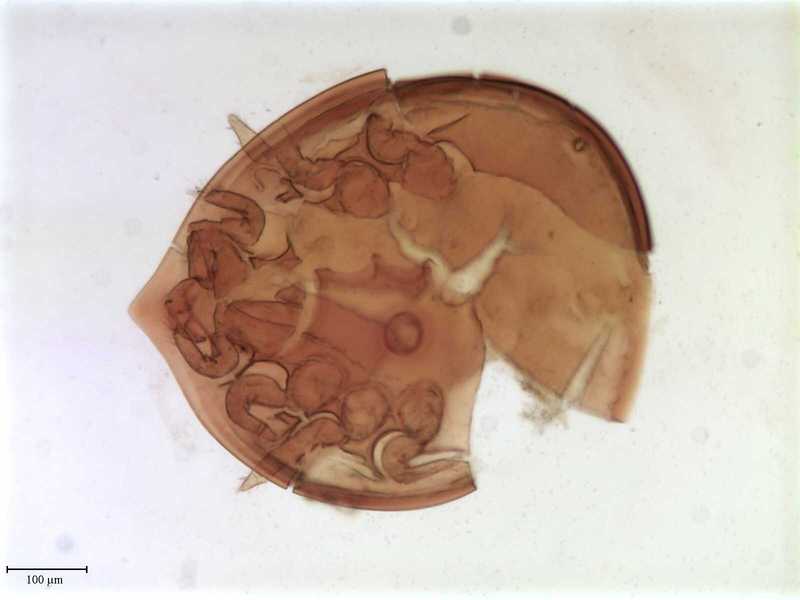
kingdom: Animalia
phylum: Arthropoda
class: Arachnida
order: Mesostigmata
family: Oplitidae
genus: Oplitis
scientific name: Oplitis wasmanni
